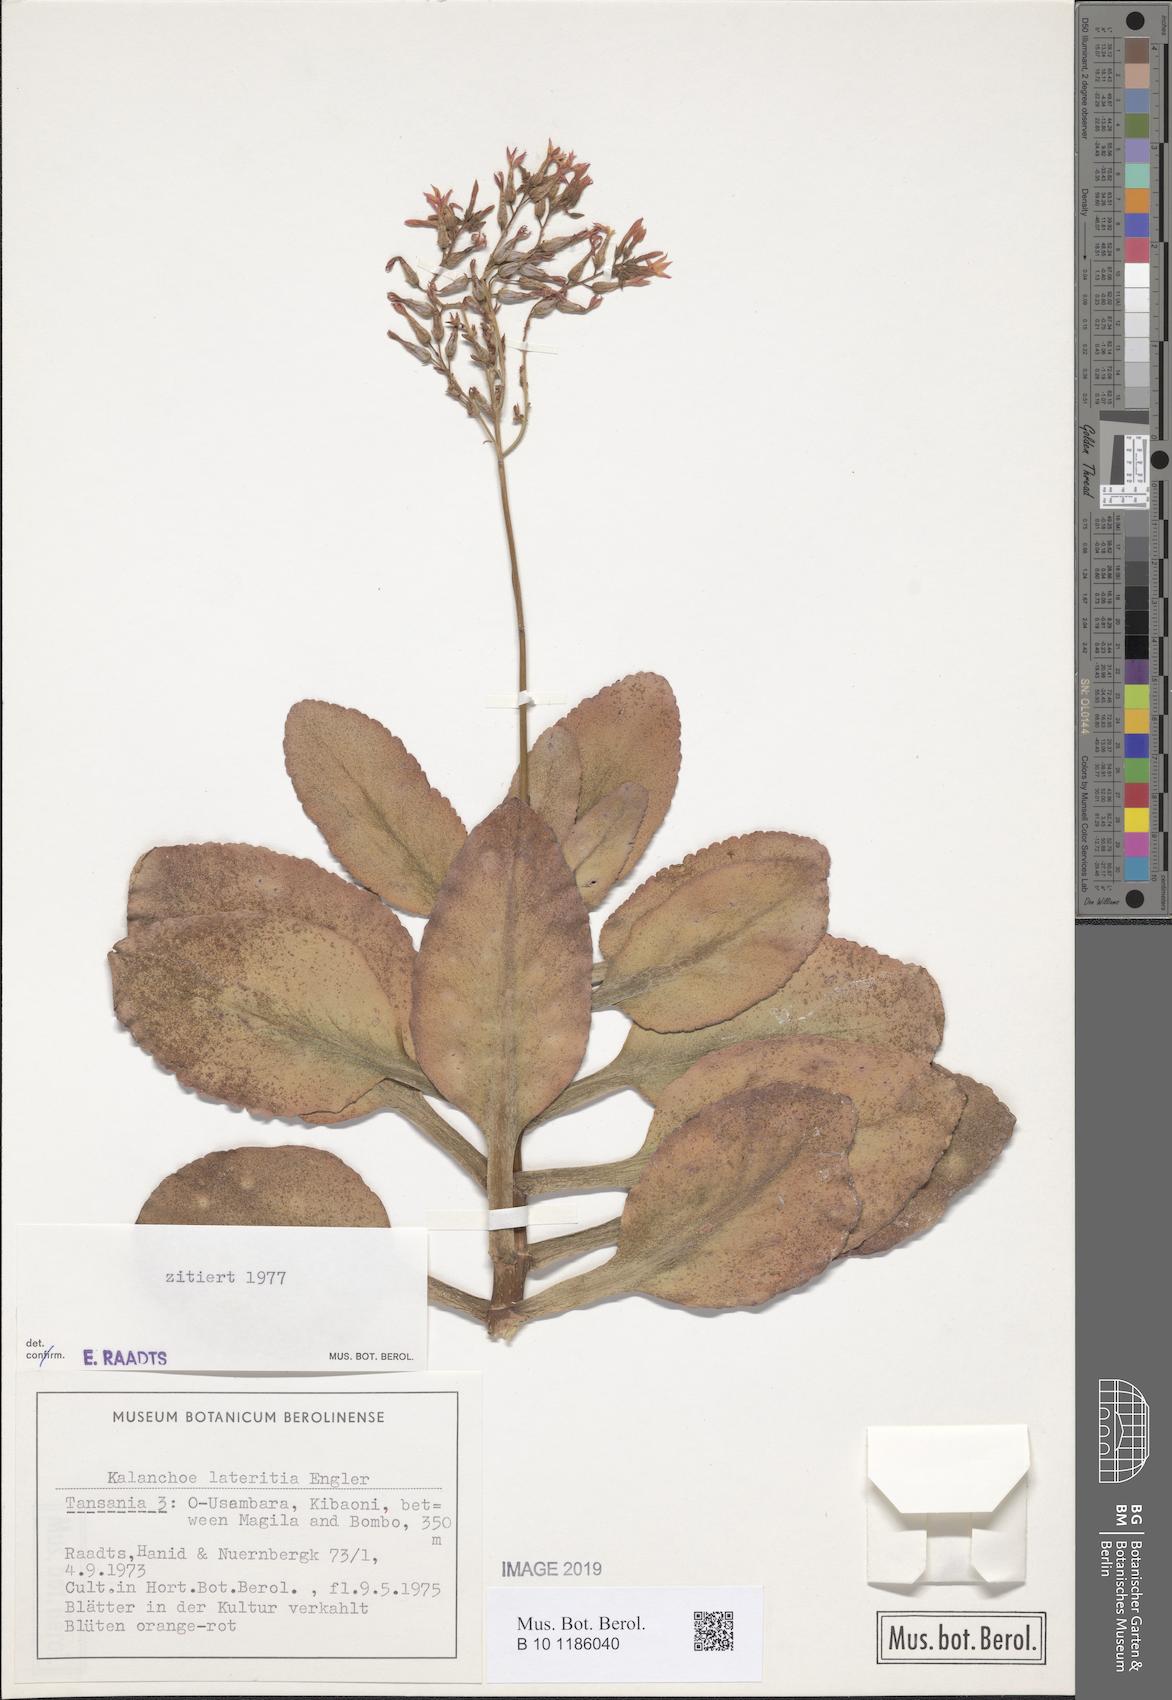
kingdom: Plantae
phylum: Tracheophyta
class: Magnoliopsida
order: Saxifragales
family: Crassulaceae
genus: Kalanchoe
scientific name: Kalanchoe lateritia
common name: Kalanchoe
